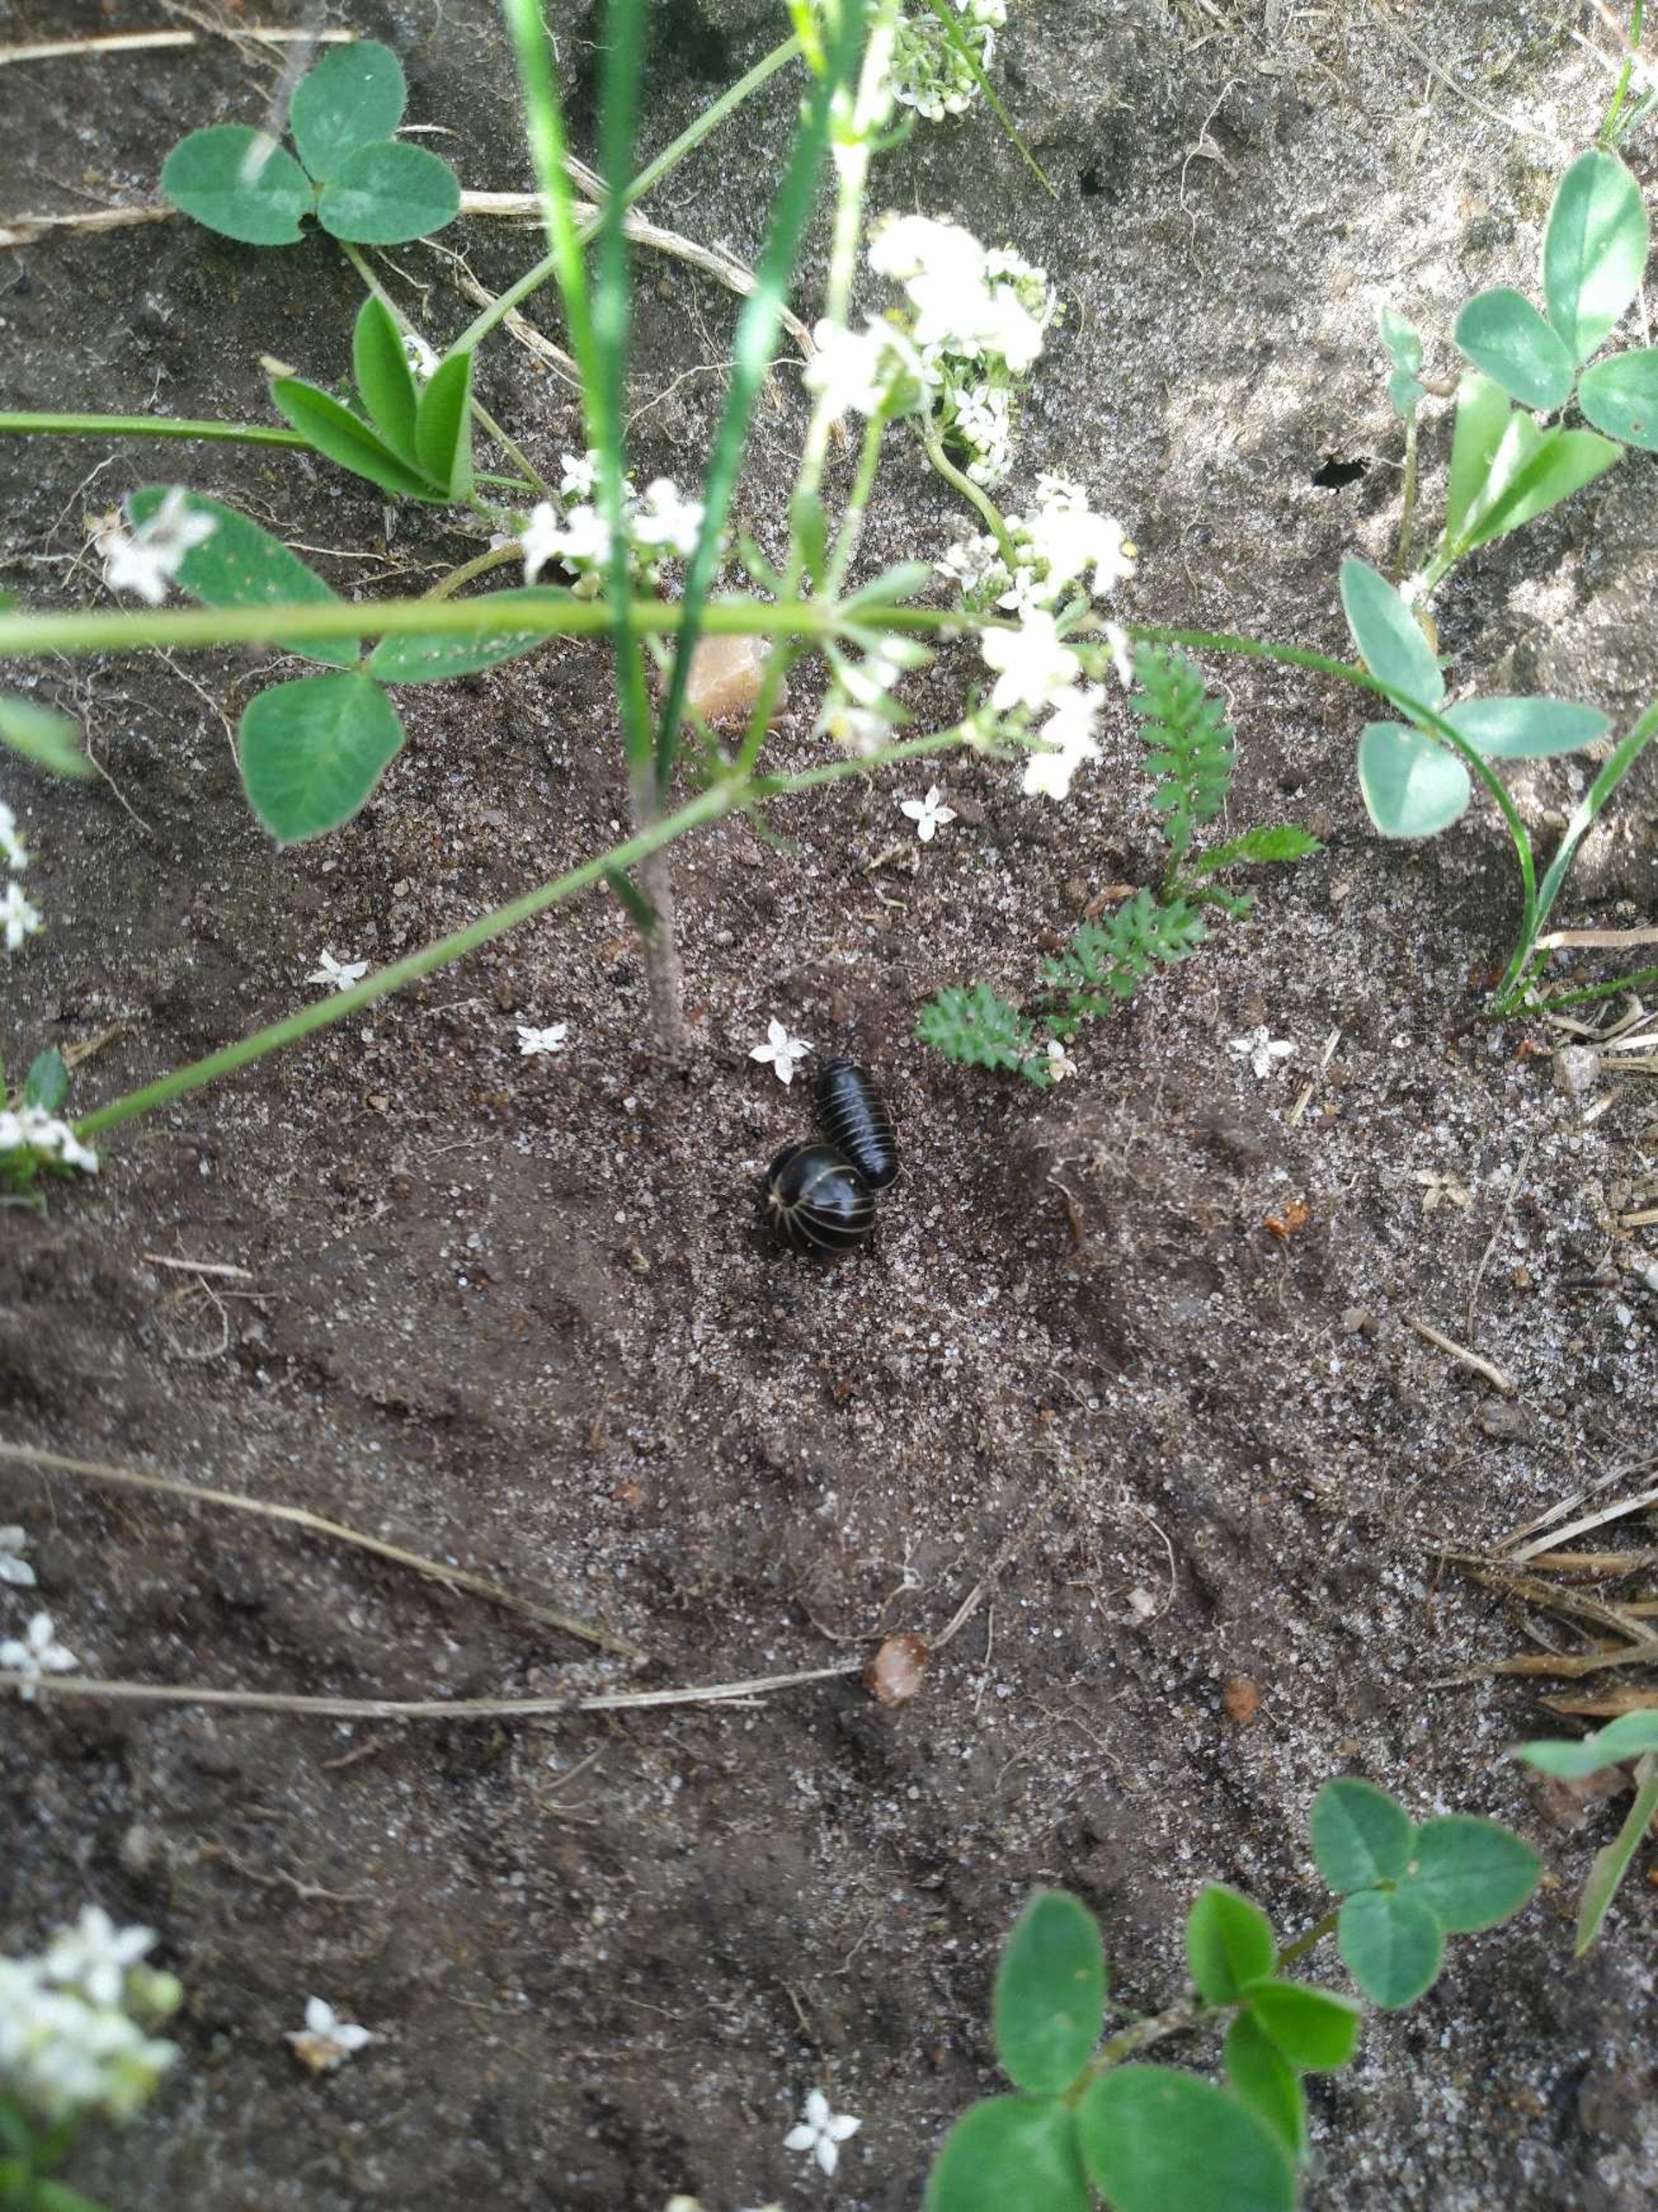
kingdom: Animalia
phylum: Arthropoda
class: Diplopoda
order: Glomerida
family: Glomeridae
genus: Glomeris
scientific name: Glomeris marginata
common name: Kugletusindben
